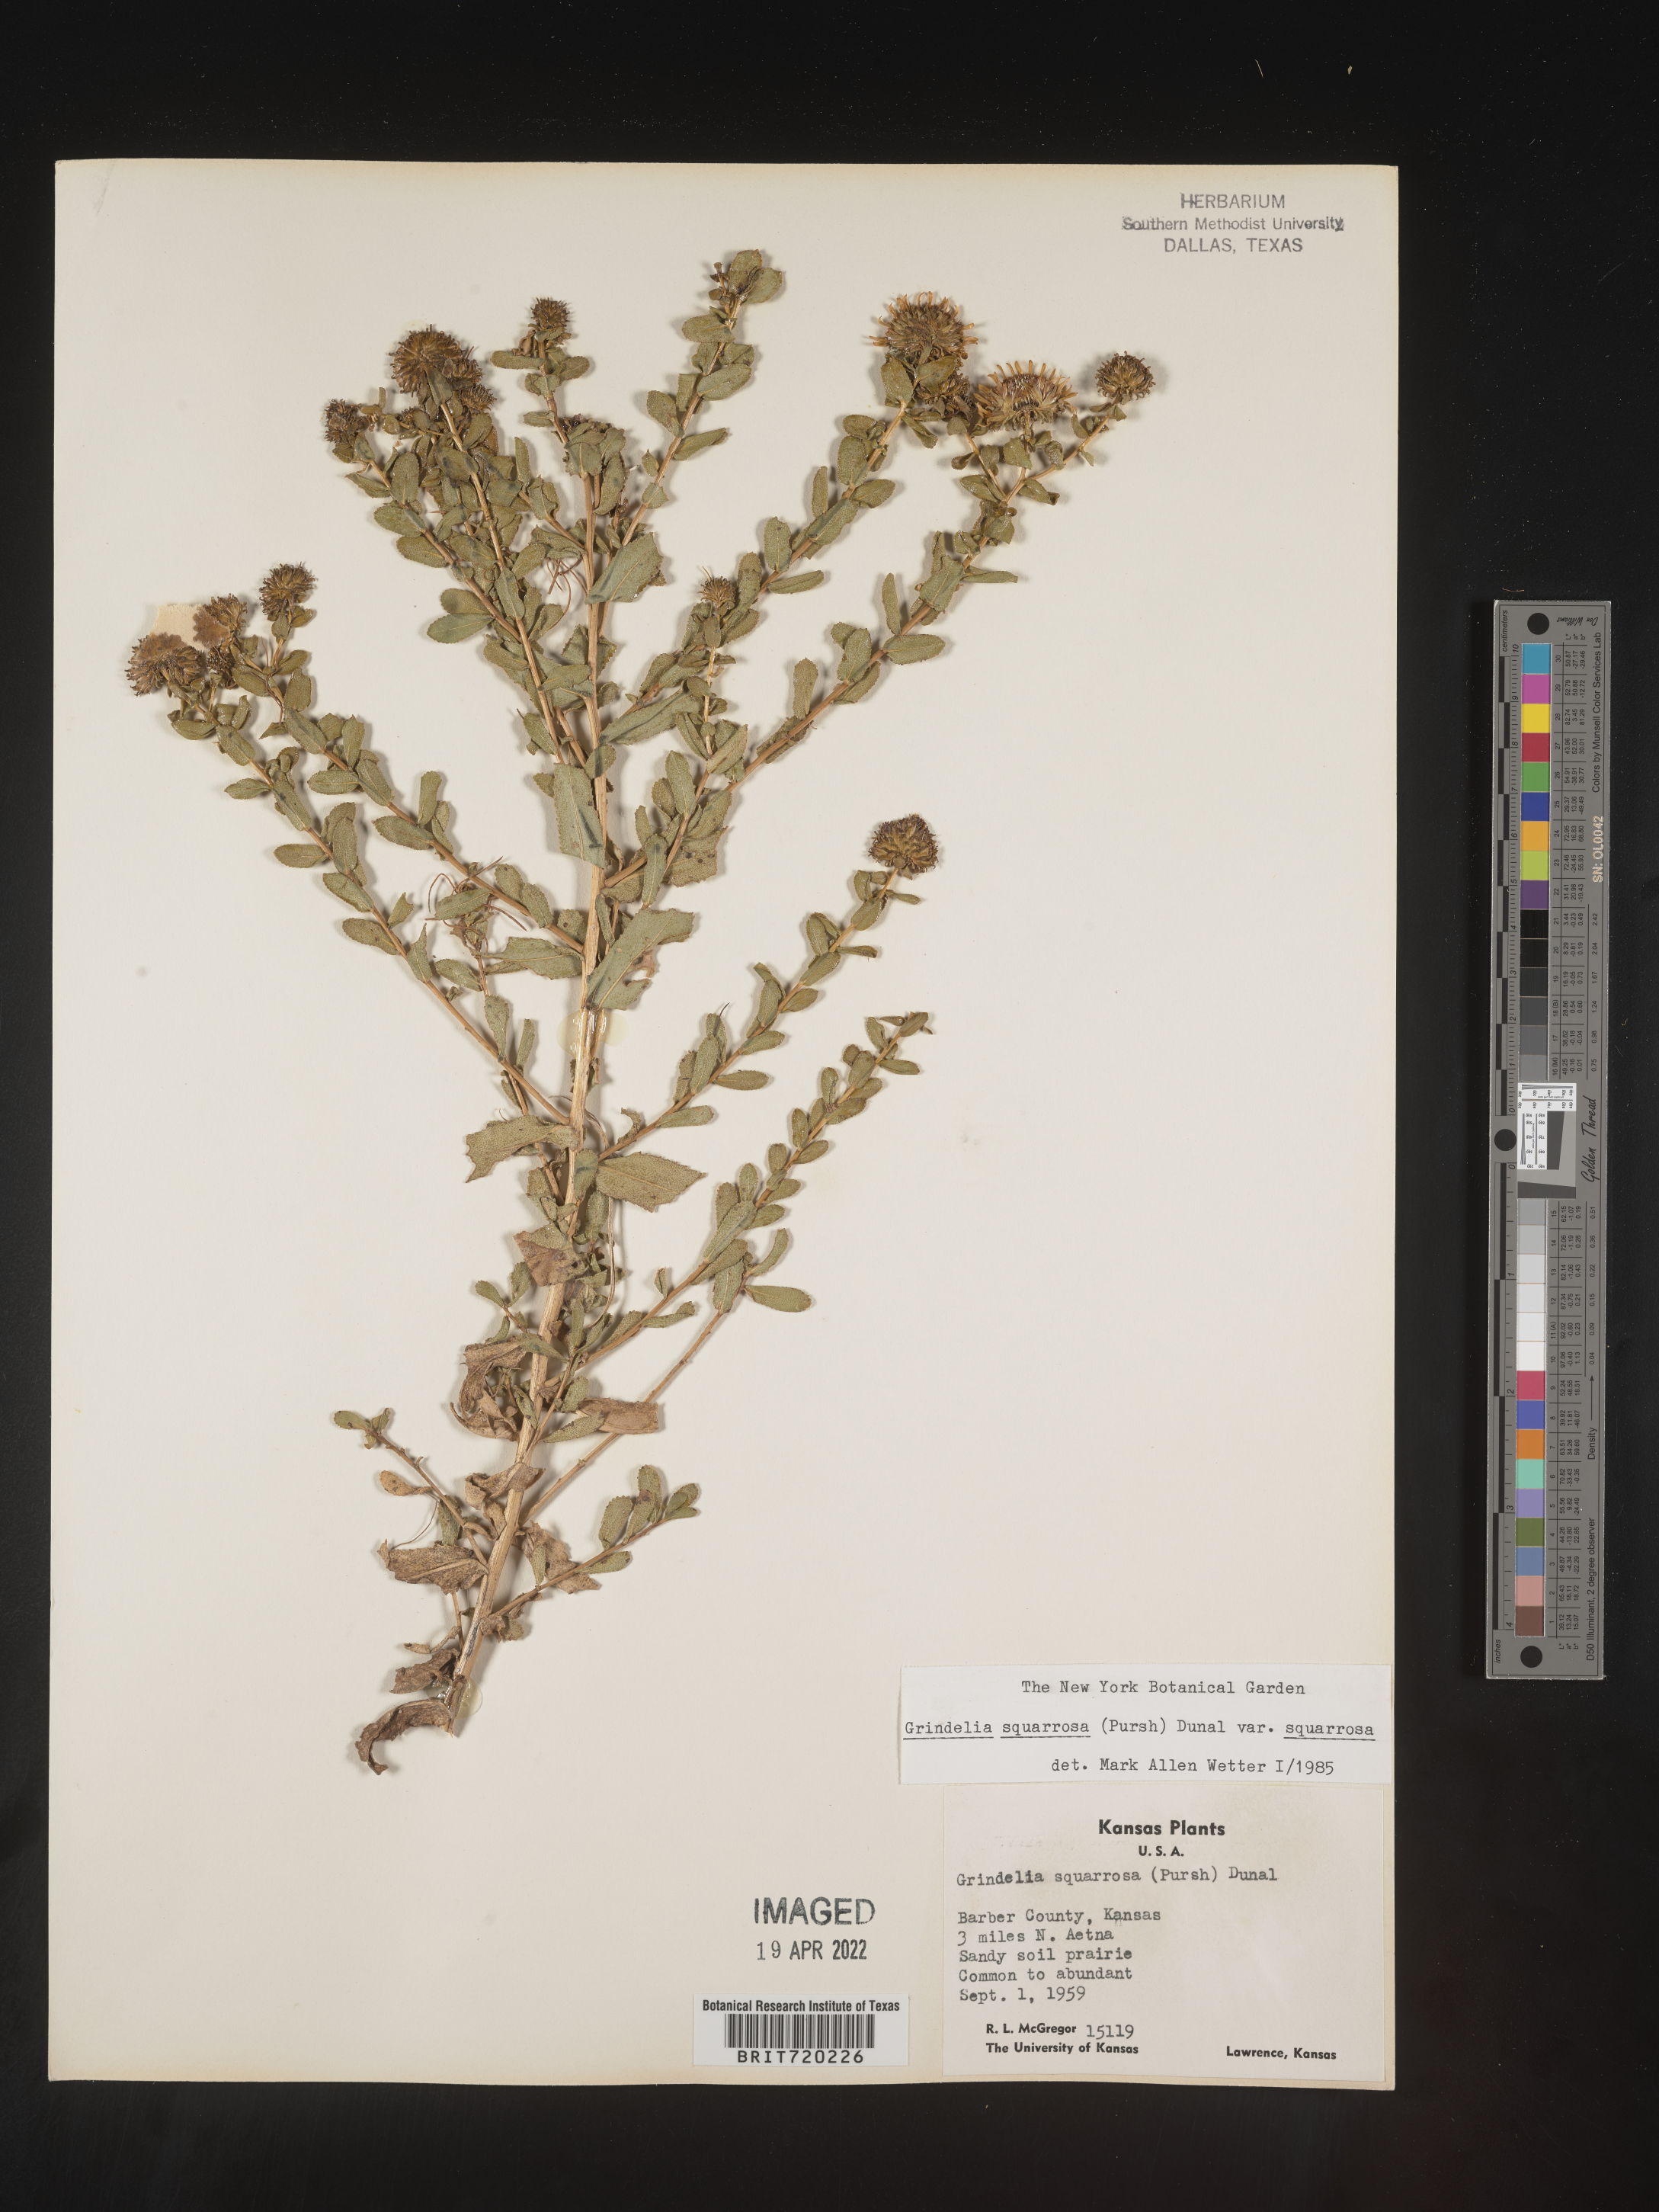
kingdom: Plantae
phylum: Tracheophyta
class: Magnoliopsida
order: Asterales
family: Asteraceae
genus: Grindelia
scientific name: Grindelia squarrosa
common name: Curly-cup gumweed
